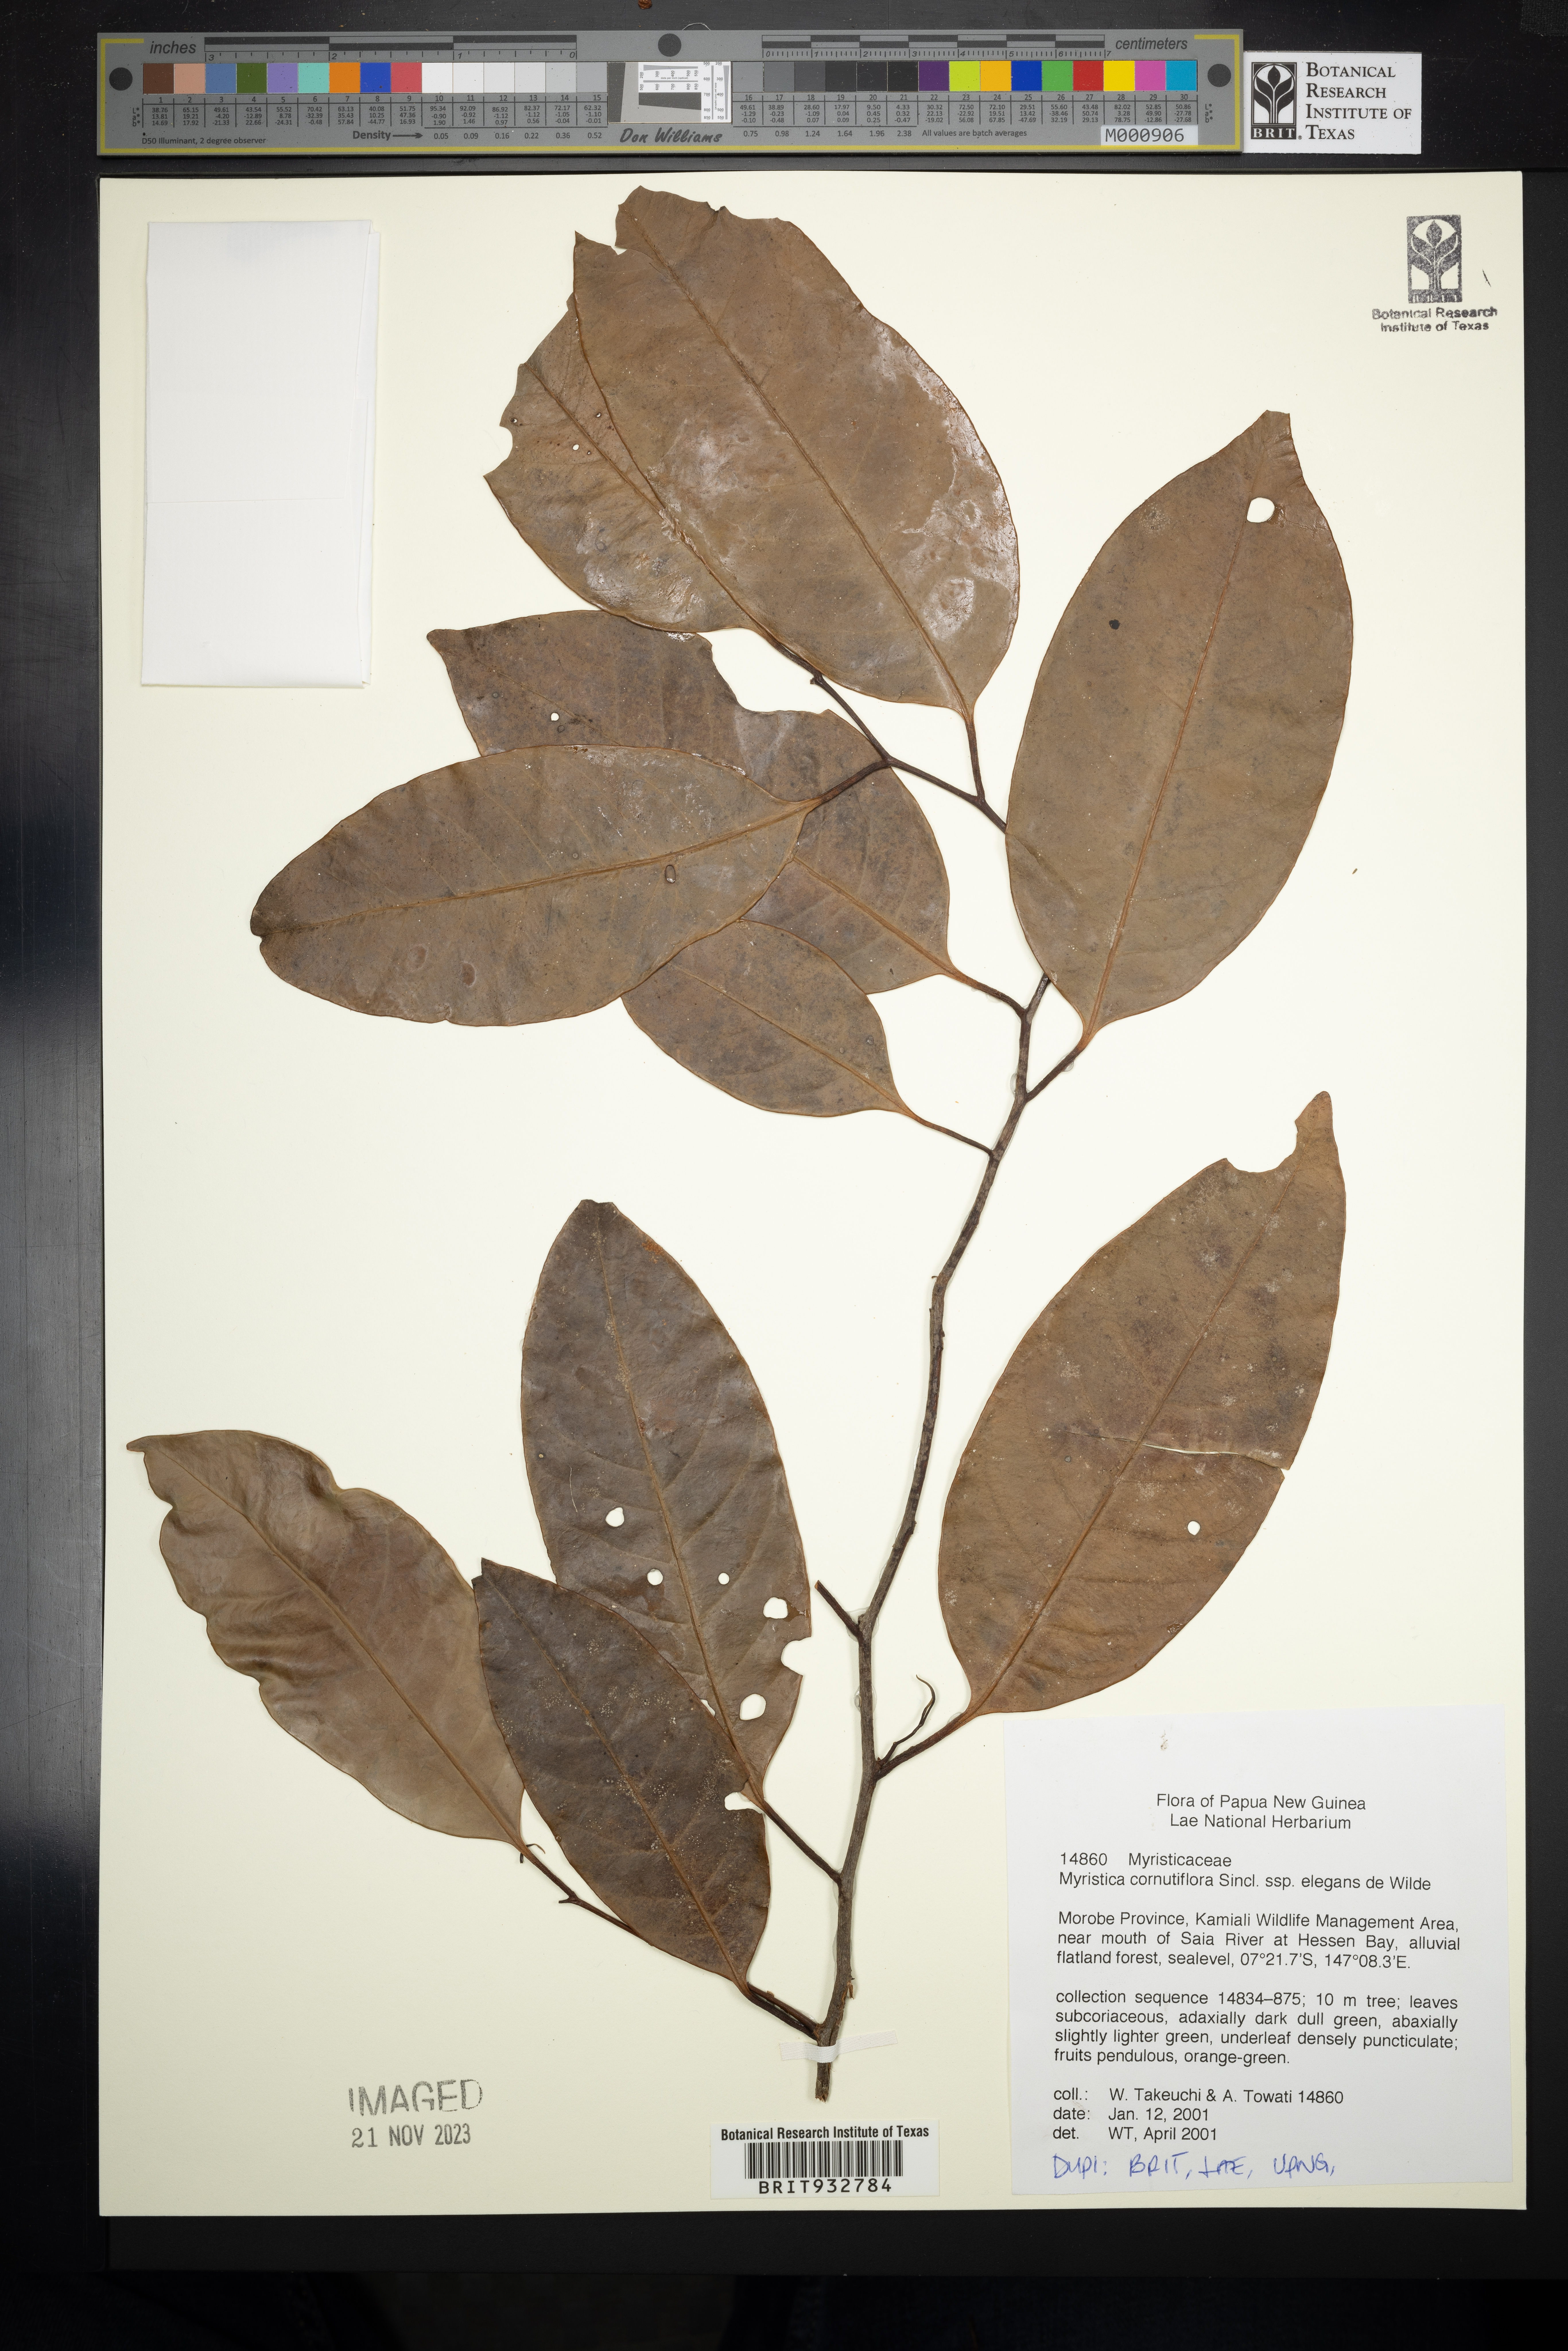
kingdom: Plantae
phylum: Tracheophyta
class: Magnoliopsida
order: Magnoliales
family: Myristicaceae
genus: Myristica
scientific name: Myristica
